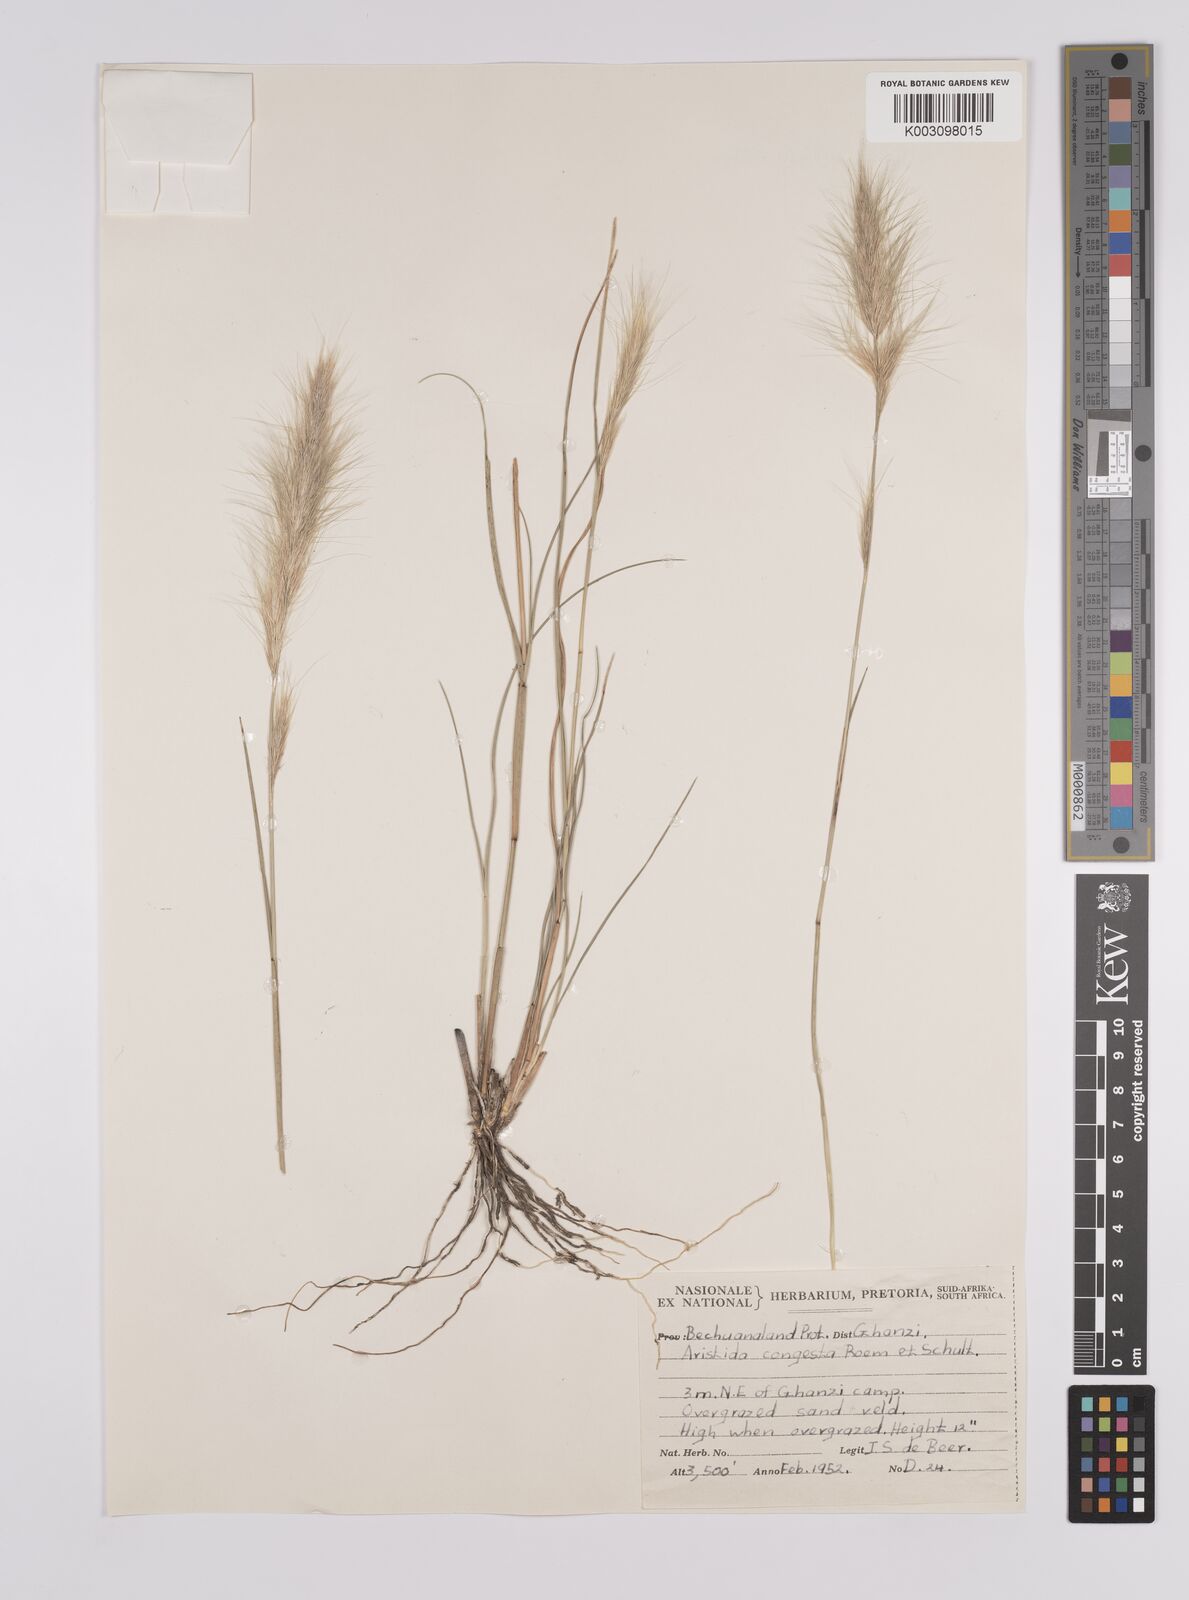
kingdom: Plantae
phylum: Tracheophyta
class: Liliopsida
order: Poales
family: Poaceae
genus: Aristida
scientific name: Aristida congesta
